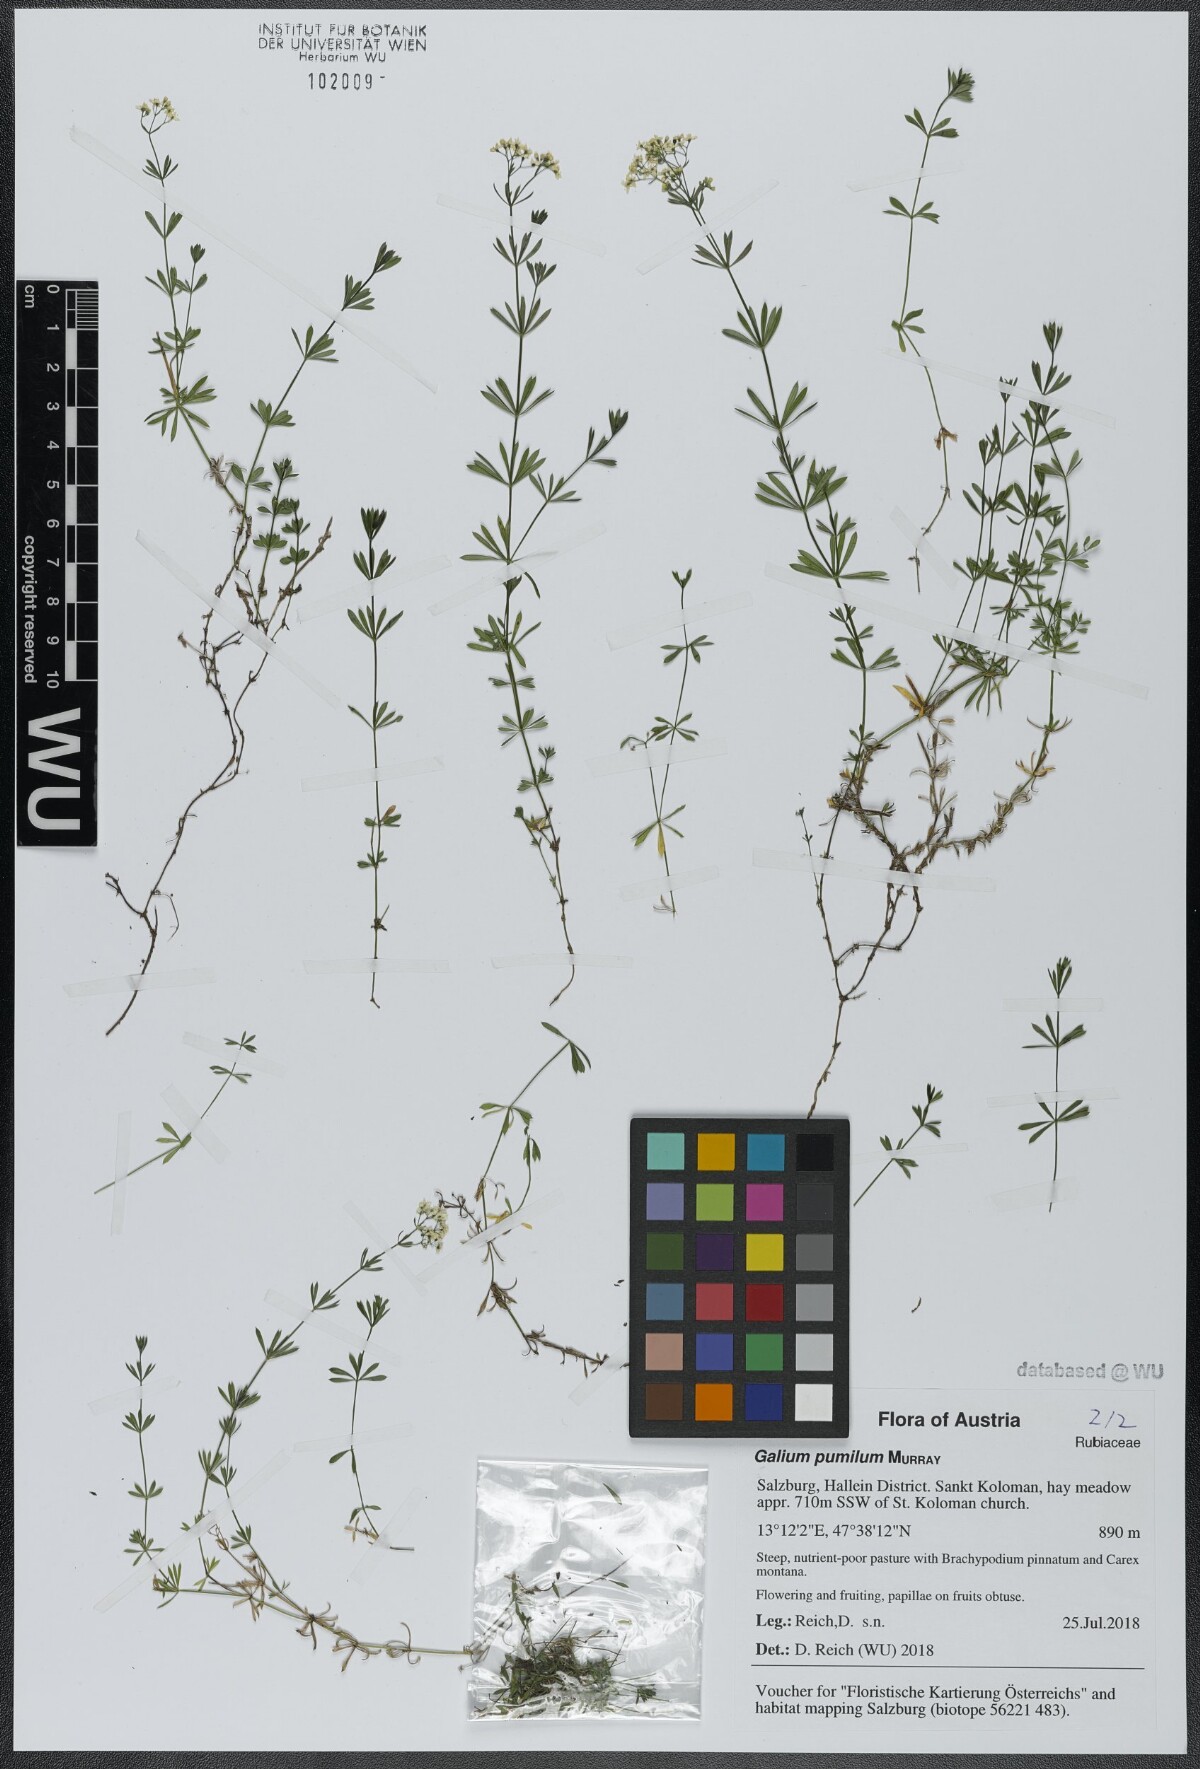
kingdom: Plantae
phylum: Tracheophyta
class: Magnoliopsida
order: Gentianales
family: Rubiaceae
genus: Galium
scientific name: Galium pumilum
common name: Slender bedstraw
